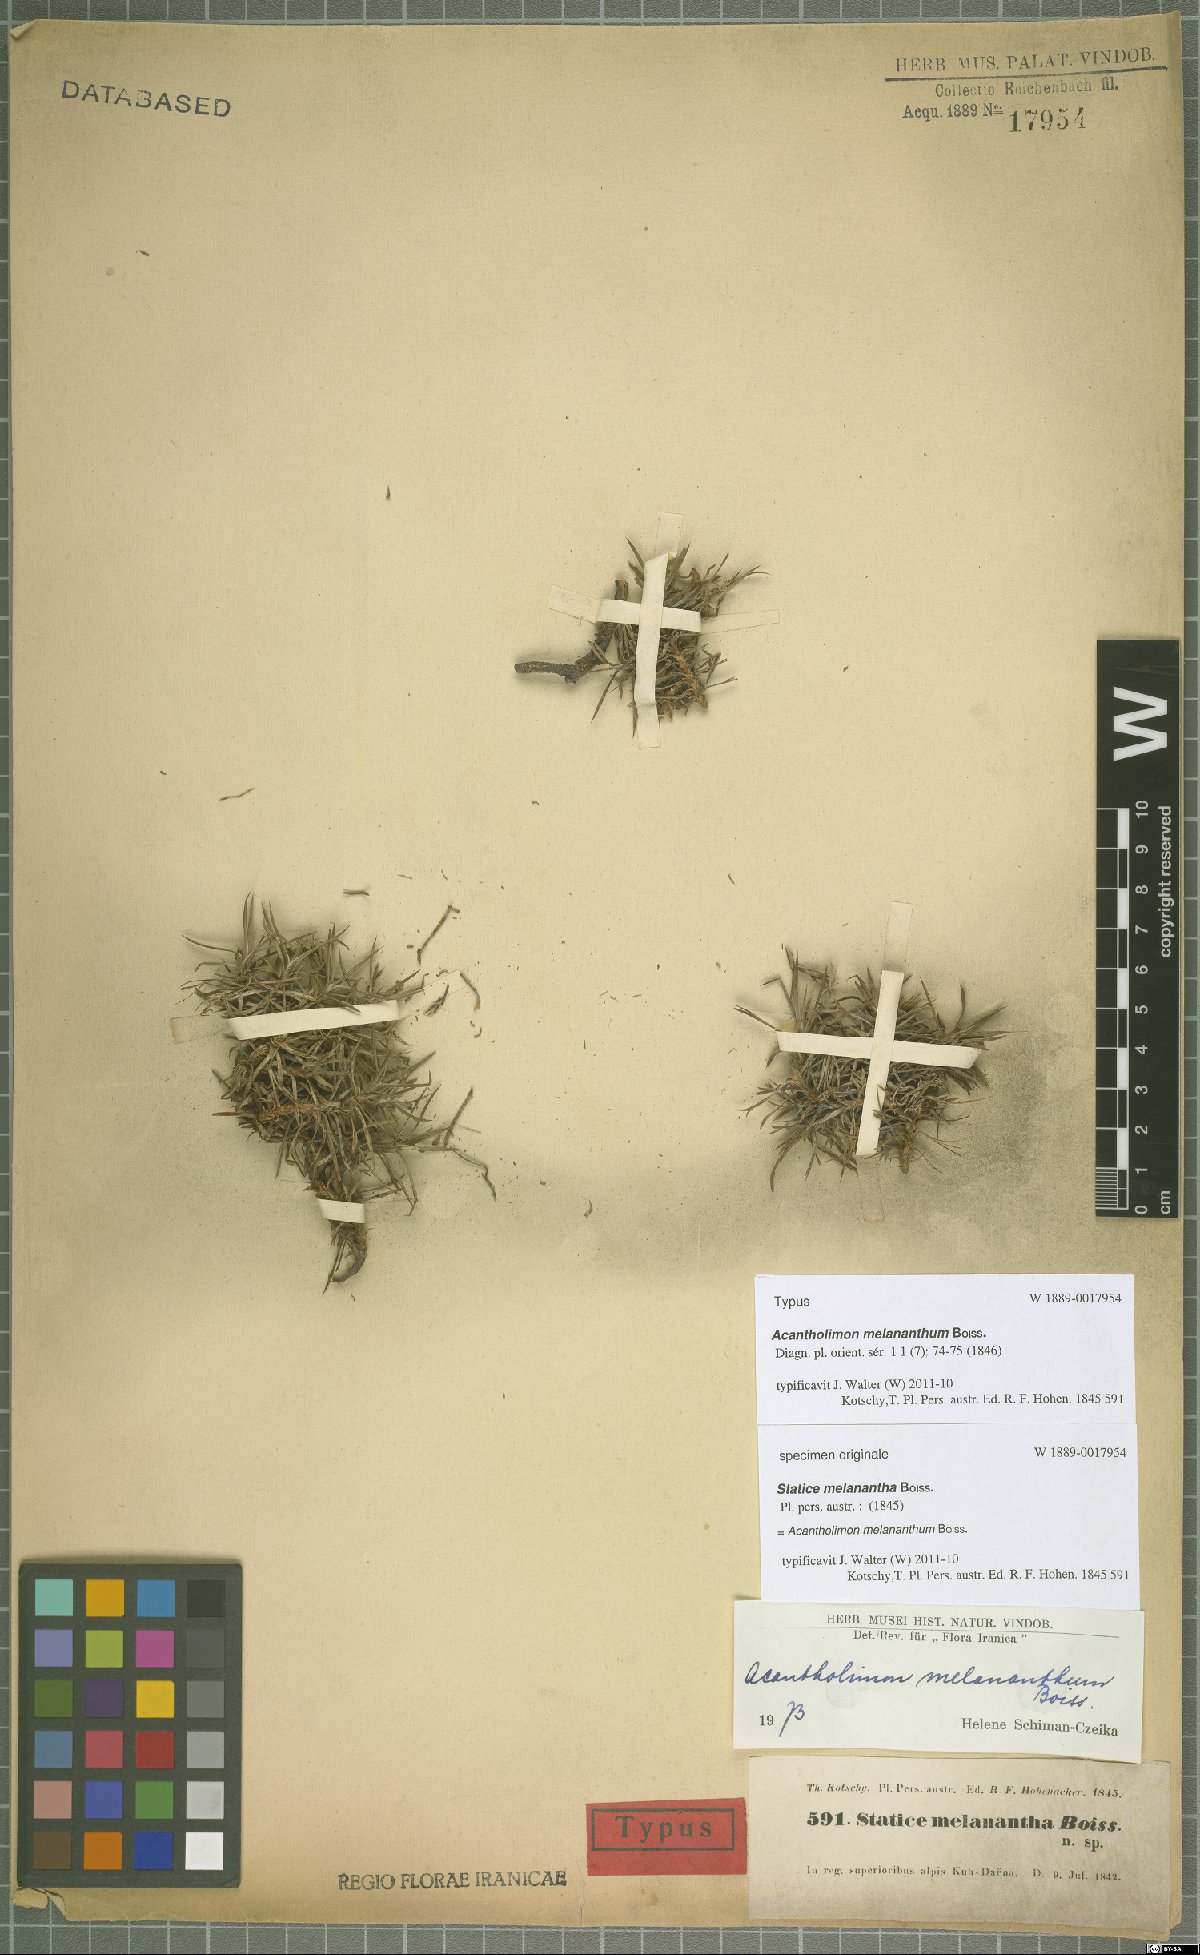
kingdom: Plantae
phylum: Tracheophyta
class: Magnoliopsida
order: Caryophyllales
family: Plumbaginaceae
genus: Acantholimon
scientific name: Acantholimon melananthum
